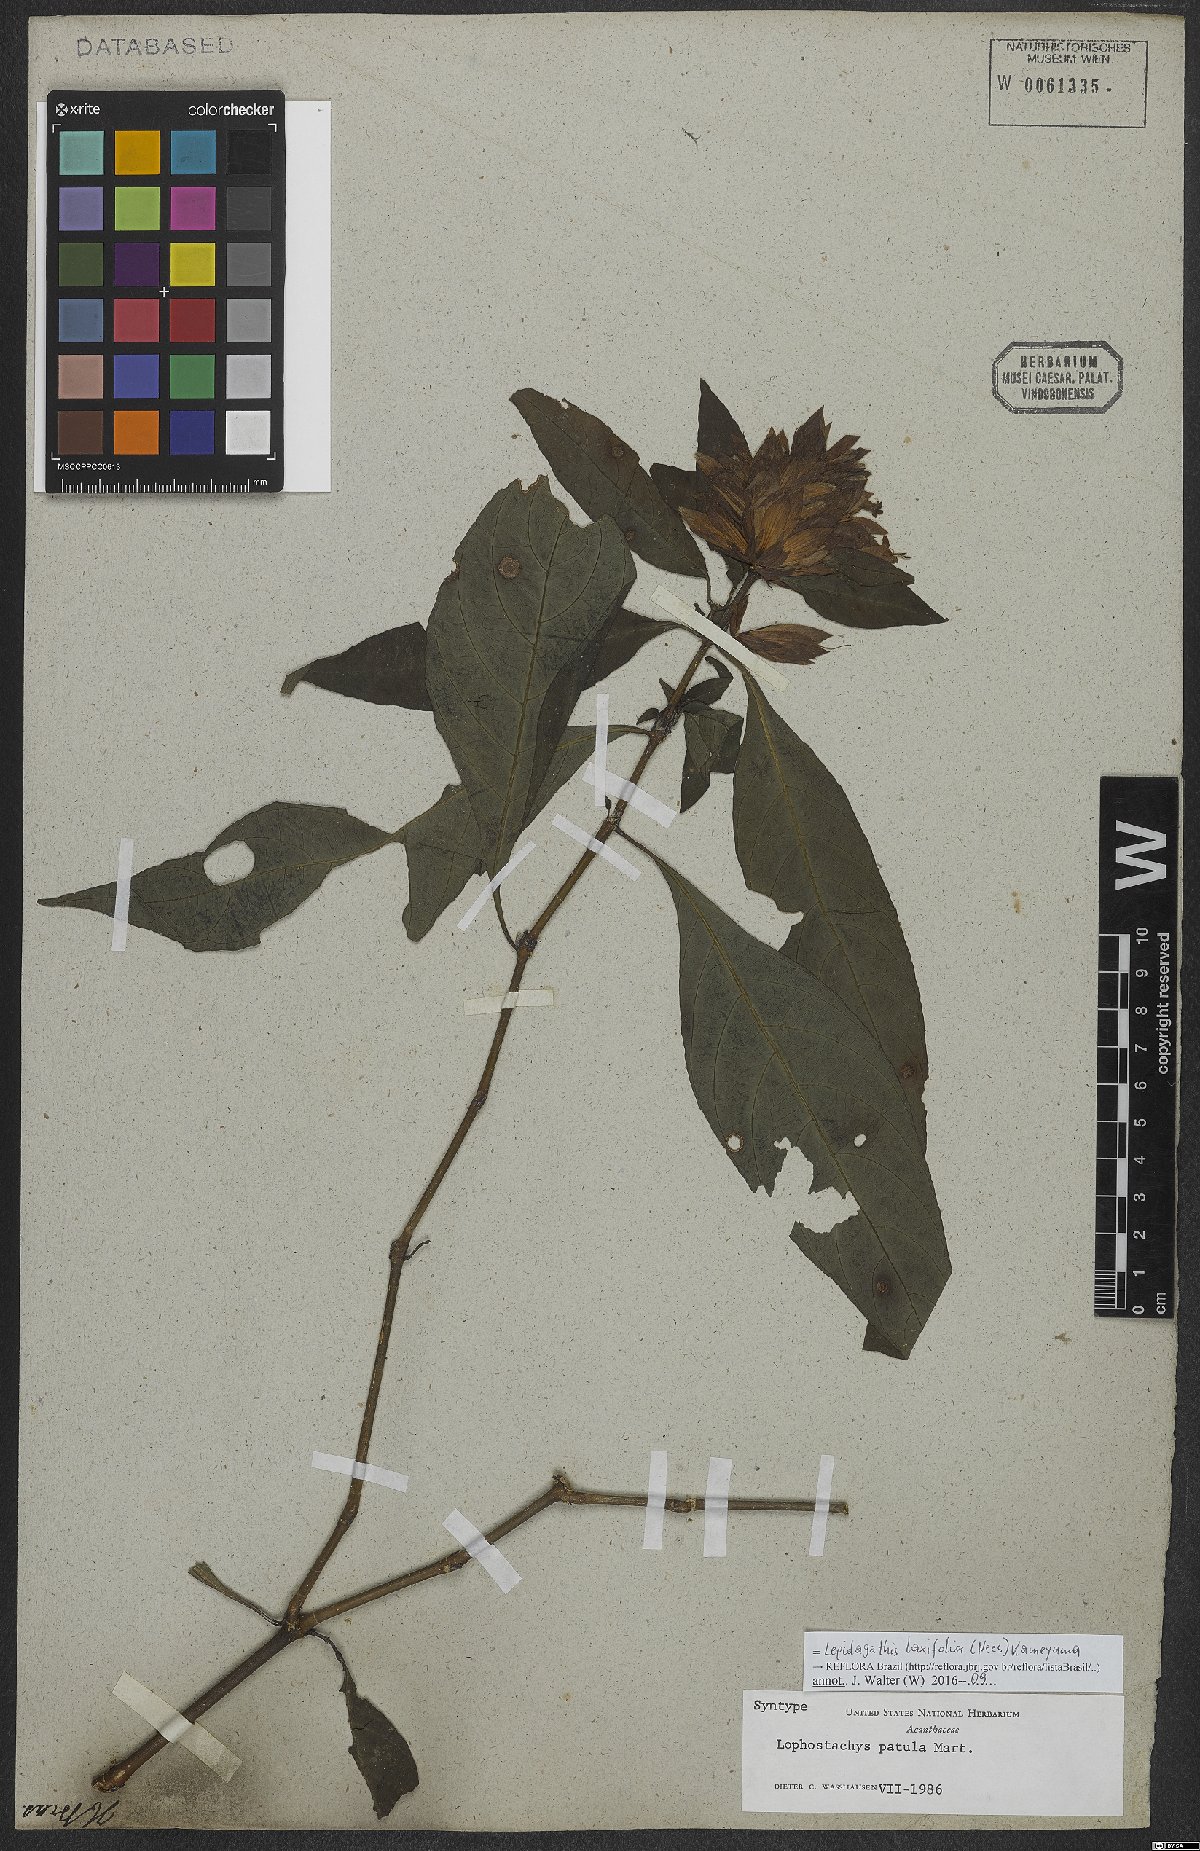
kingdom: Plantae
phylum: Tracheophyta
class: Magnoliopsida
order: Lamiales
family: Acanthaceae
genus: Lepidagathis
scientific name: Lepidagathis laxifolia
